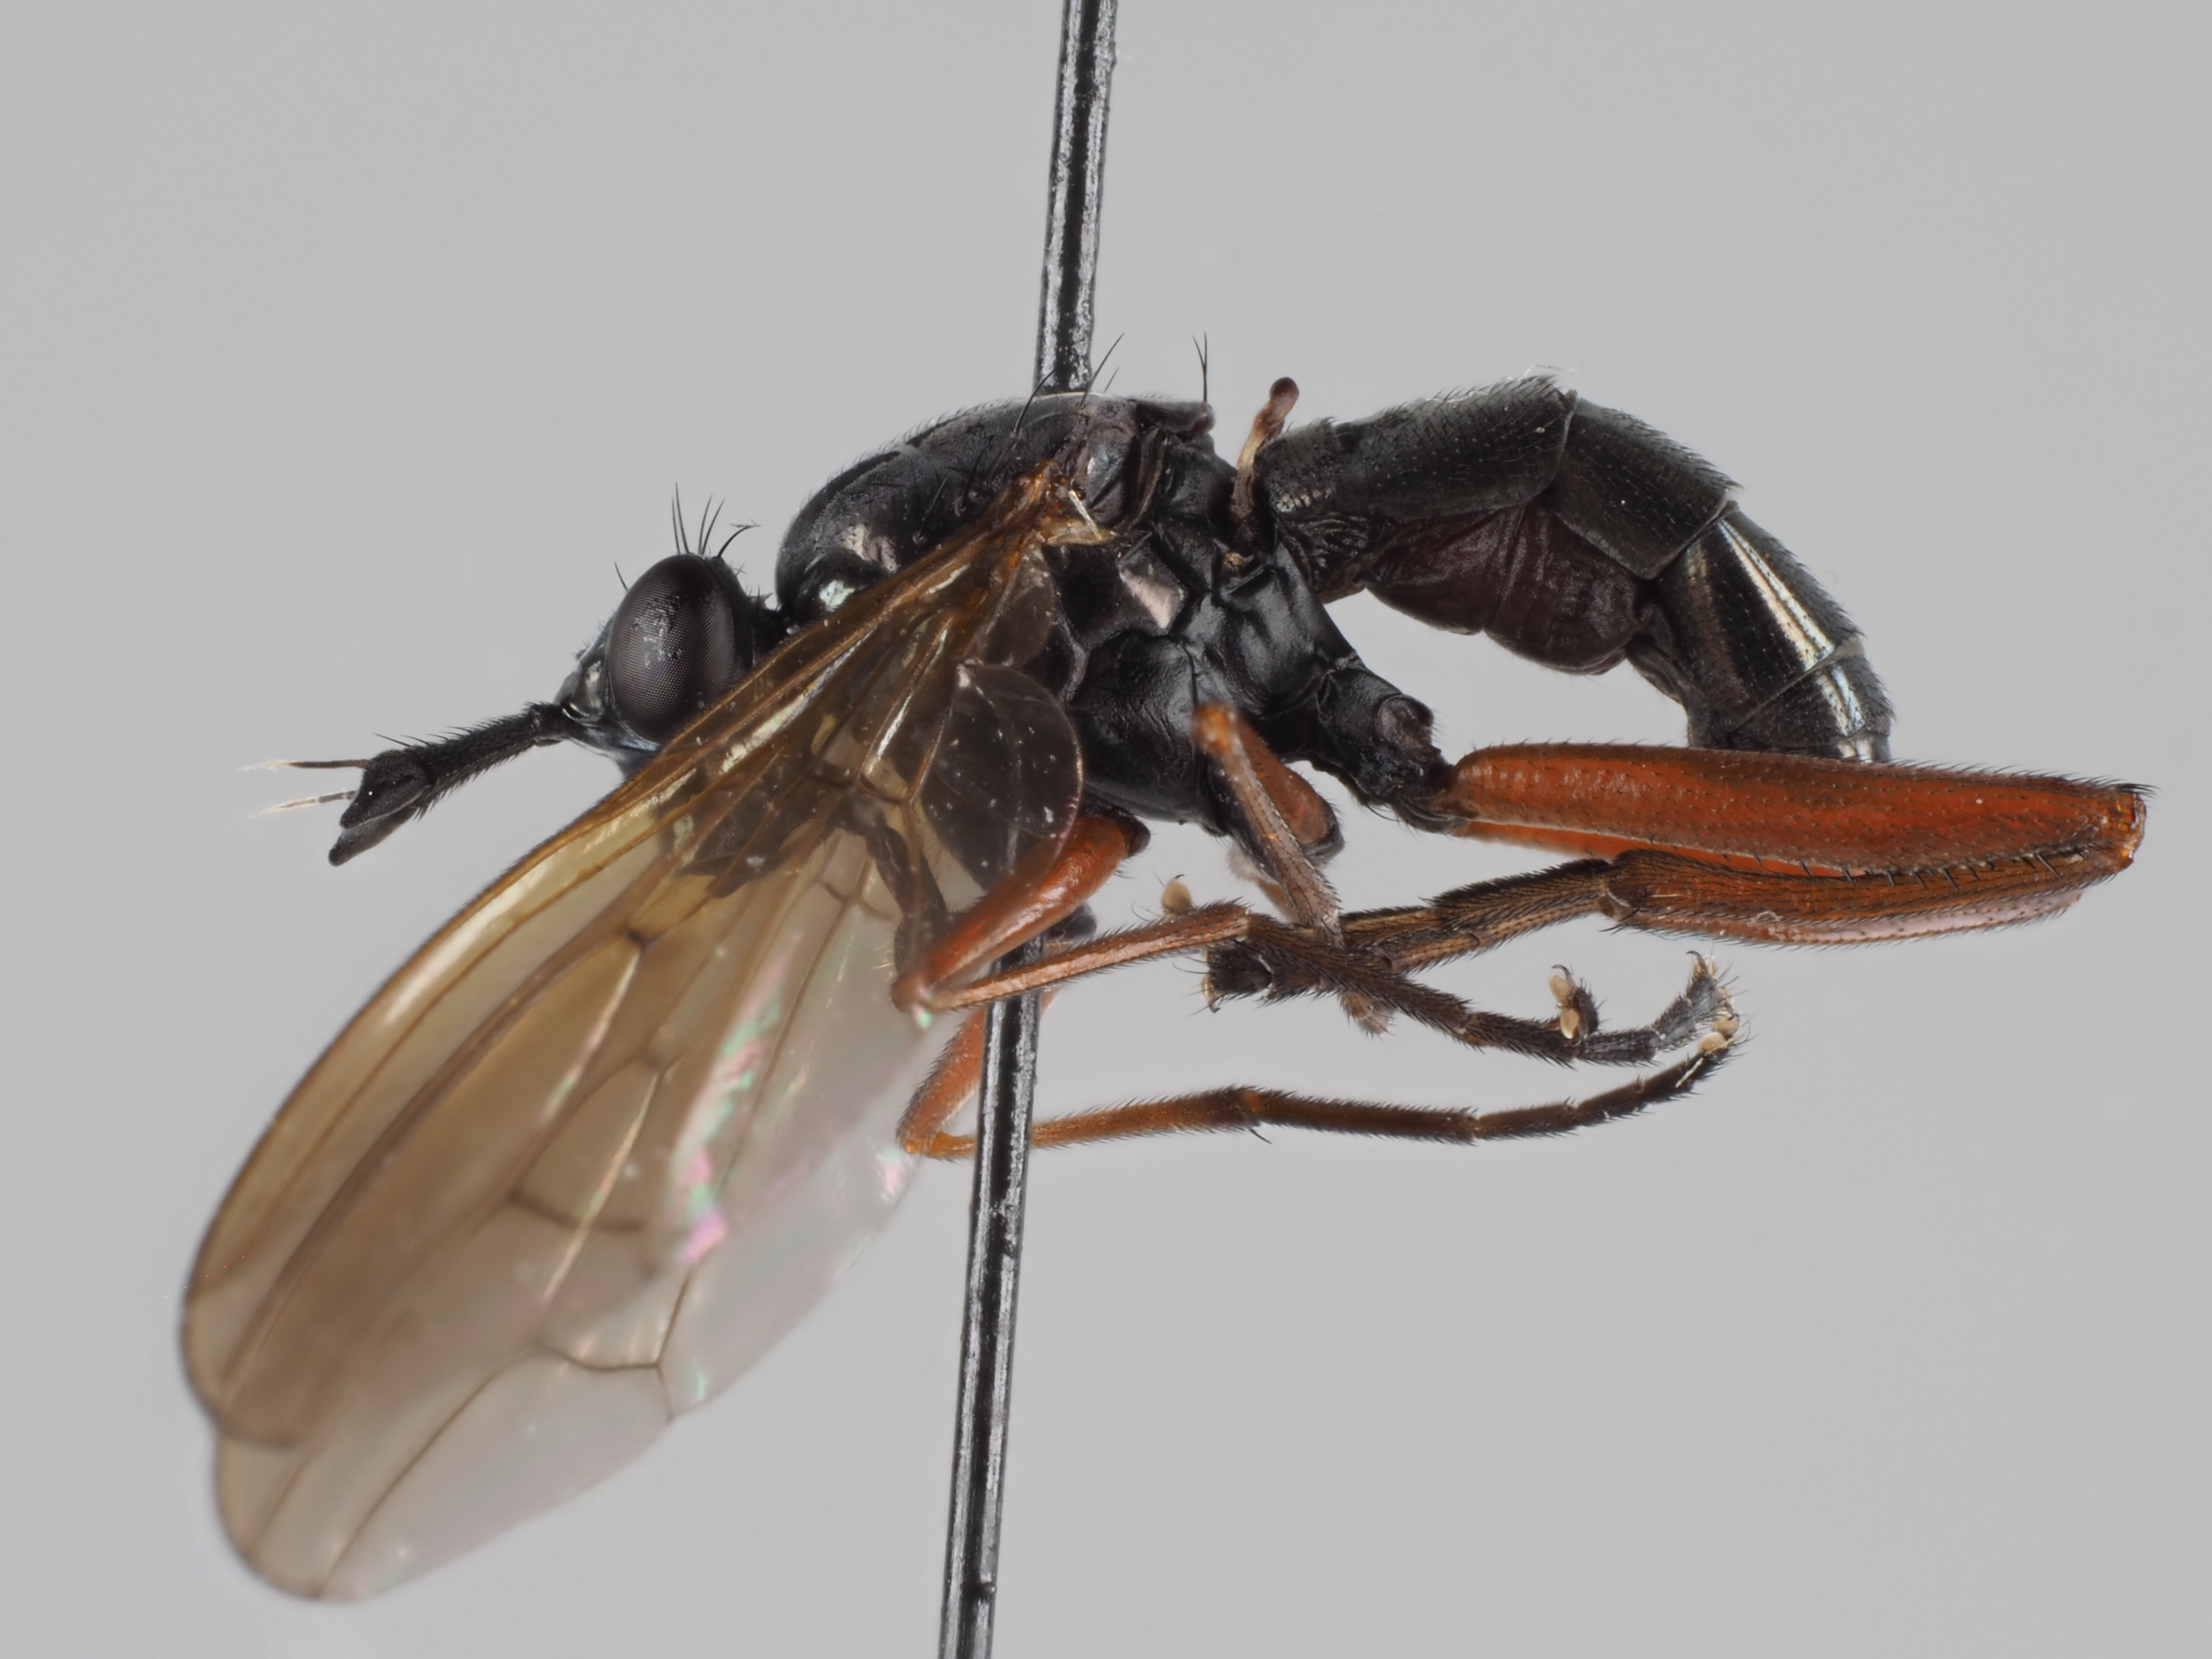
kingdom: Animalia
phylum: Arthropoda
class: Insecta
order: Diptera
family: Sciomyzidae
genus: Sepedon
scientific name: Sepedon sphegea
